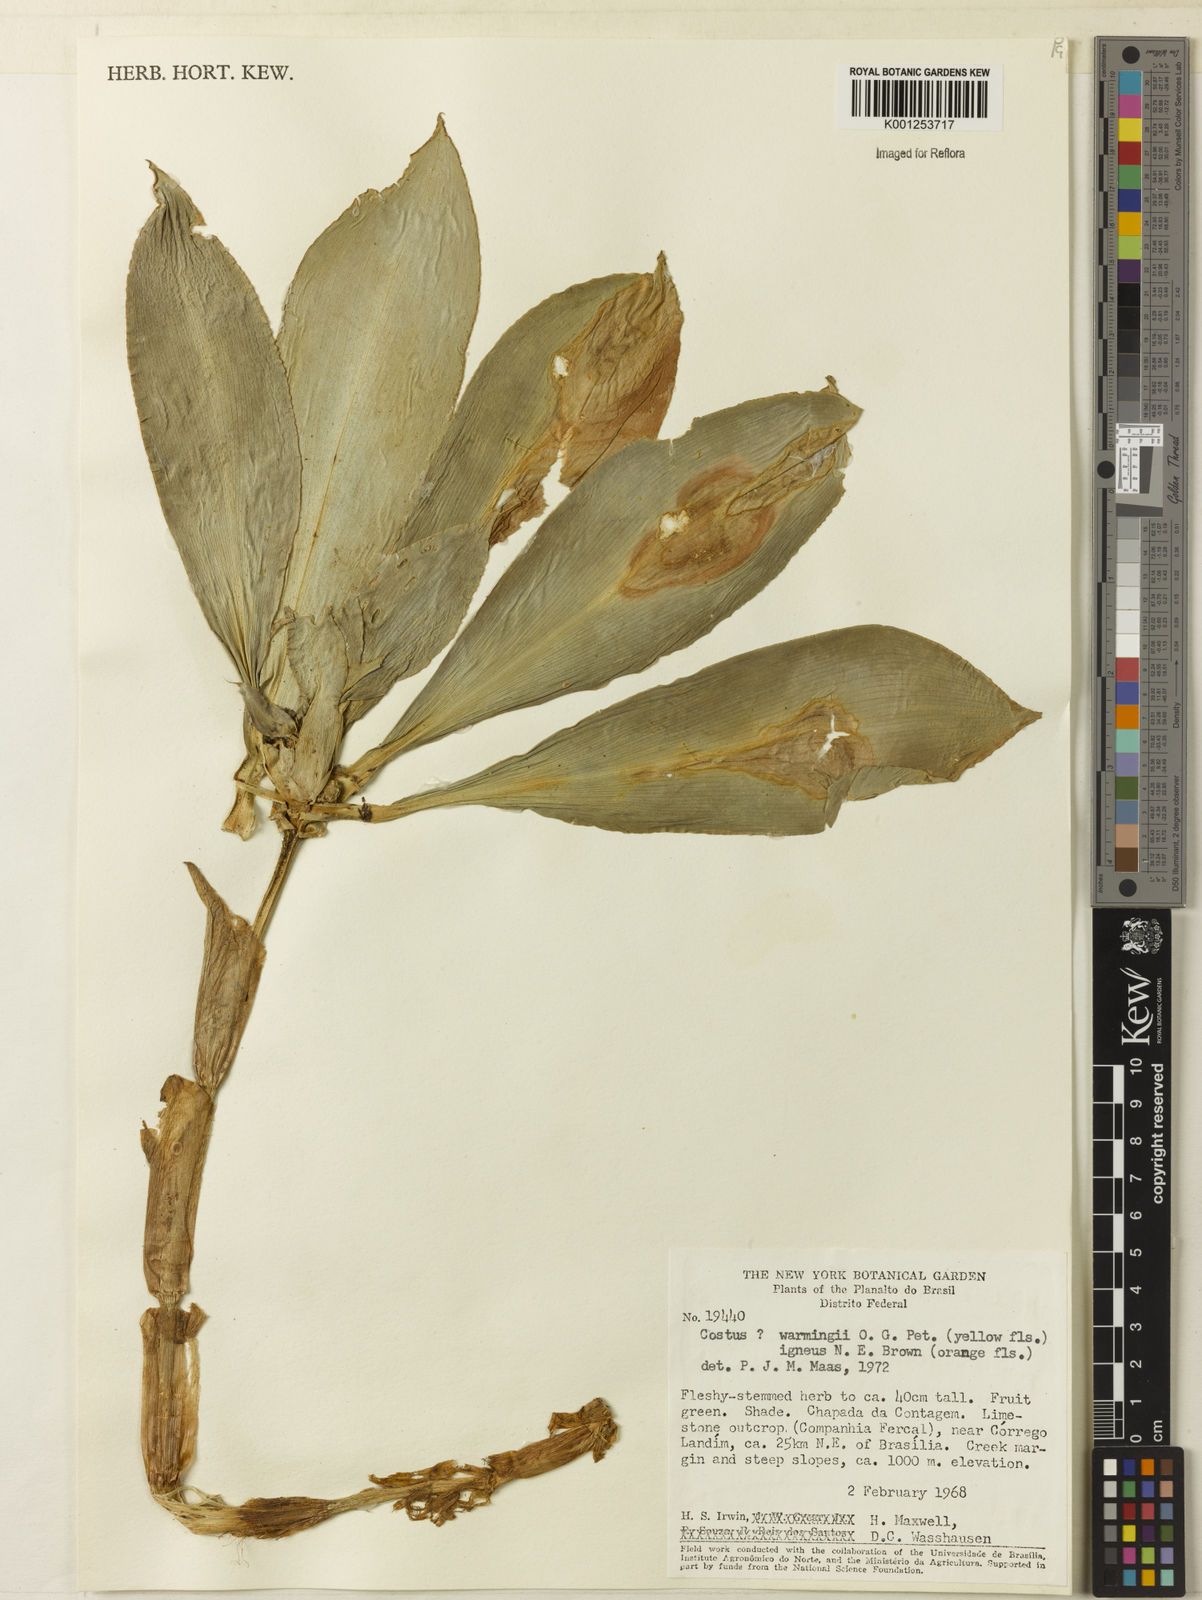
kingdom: Plantae
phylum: Tracheophyta
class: Liliopsida
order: Zingiberales
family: Costaceae
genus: Chamaecostus
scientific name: Chamaecostus cuspidatus
